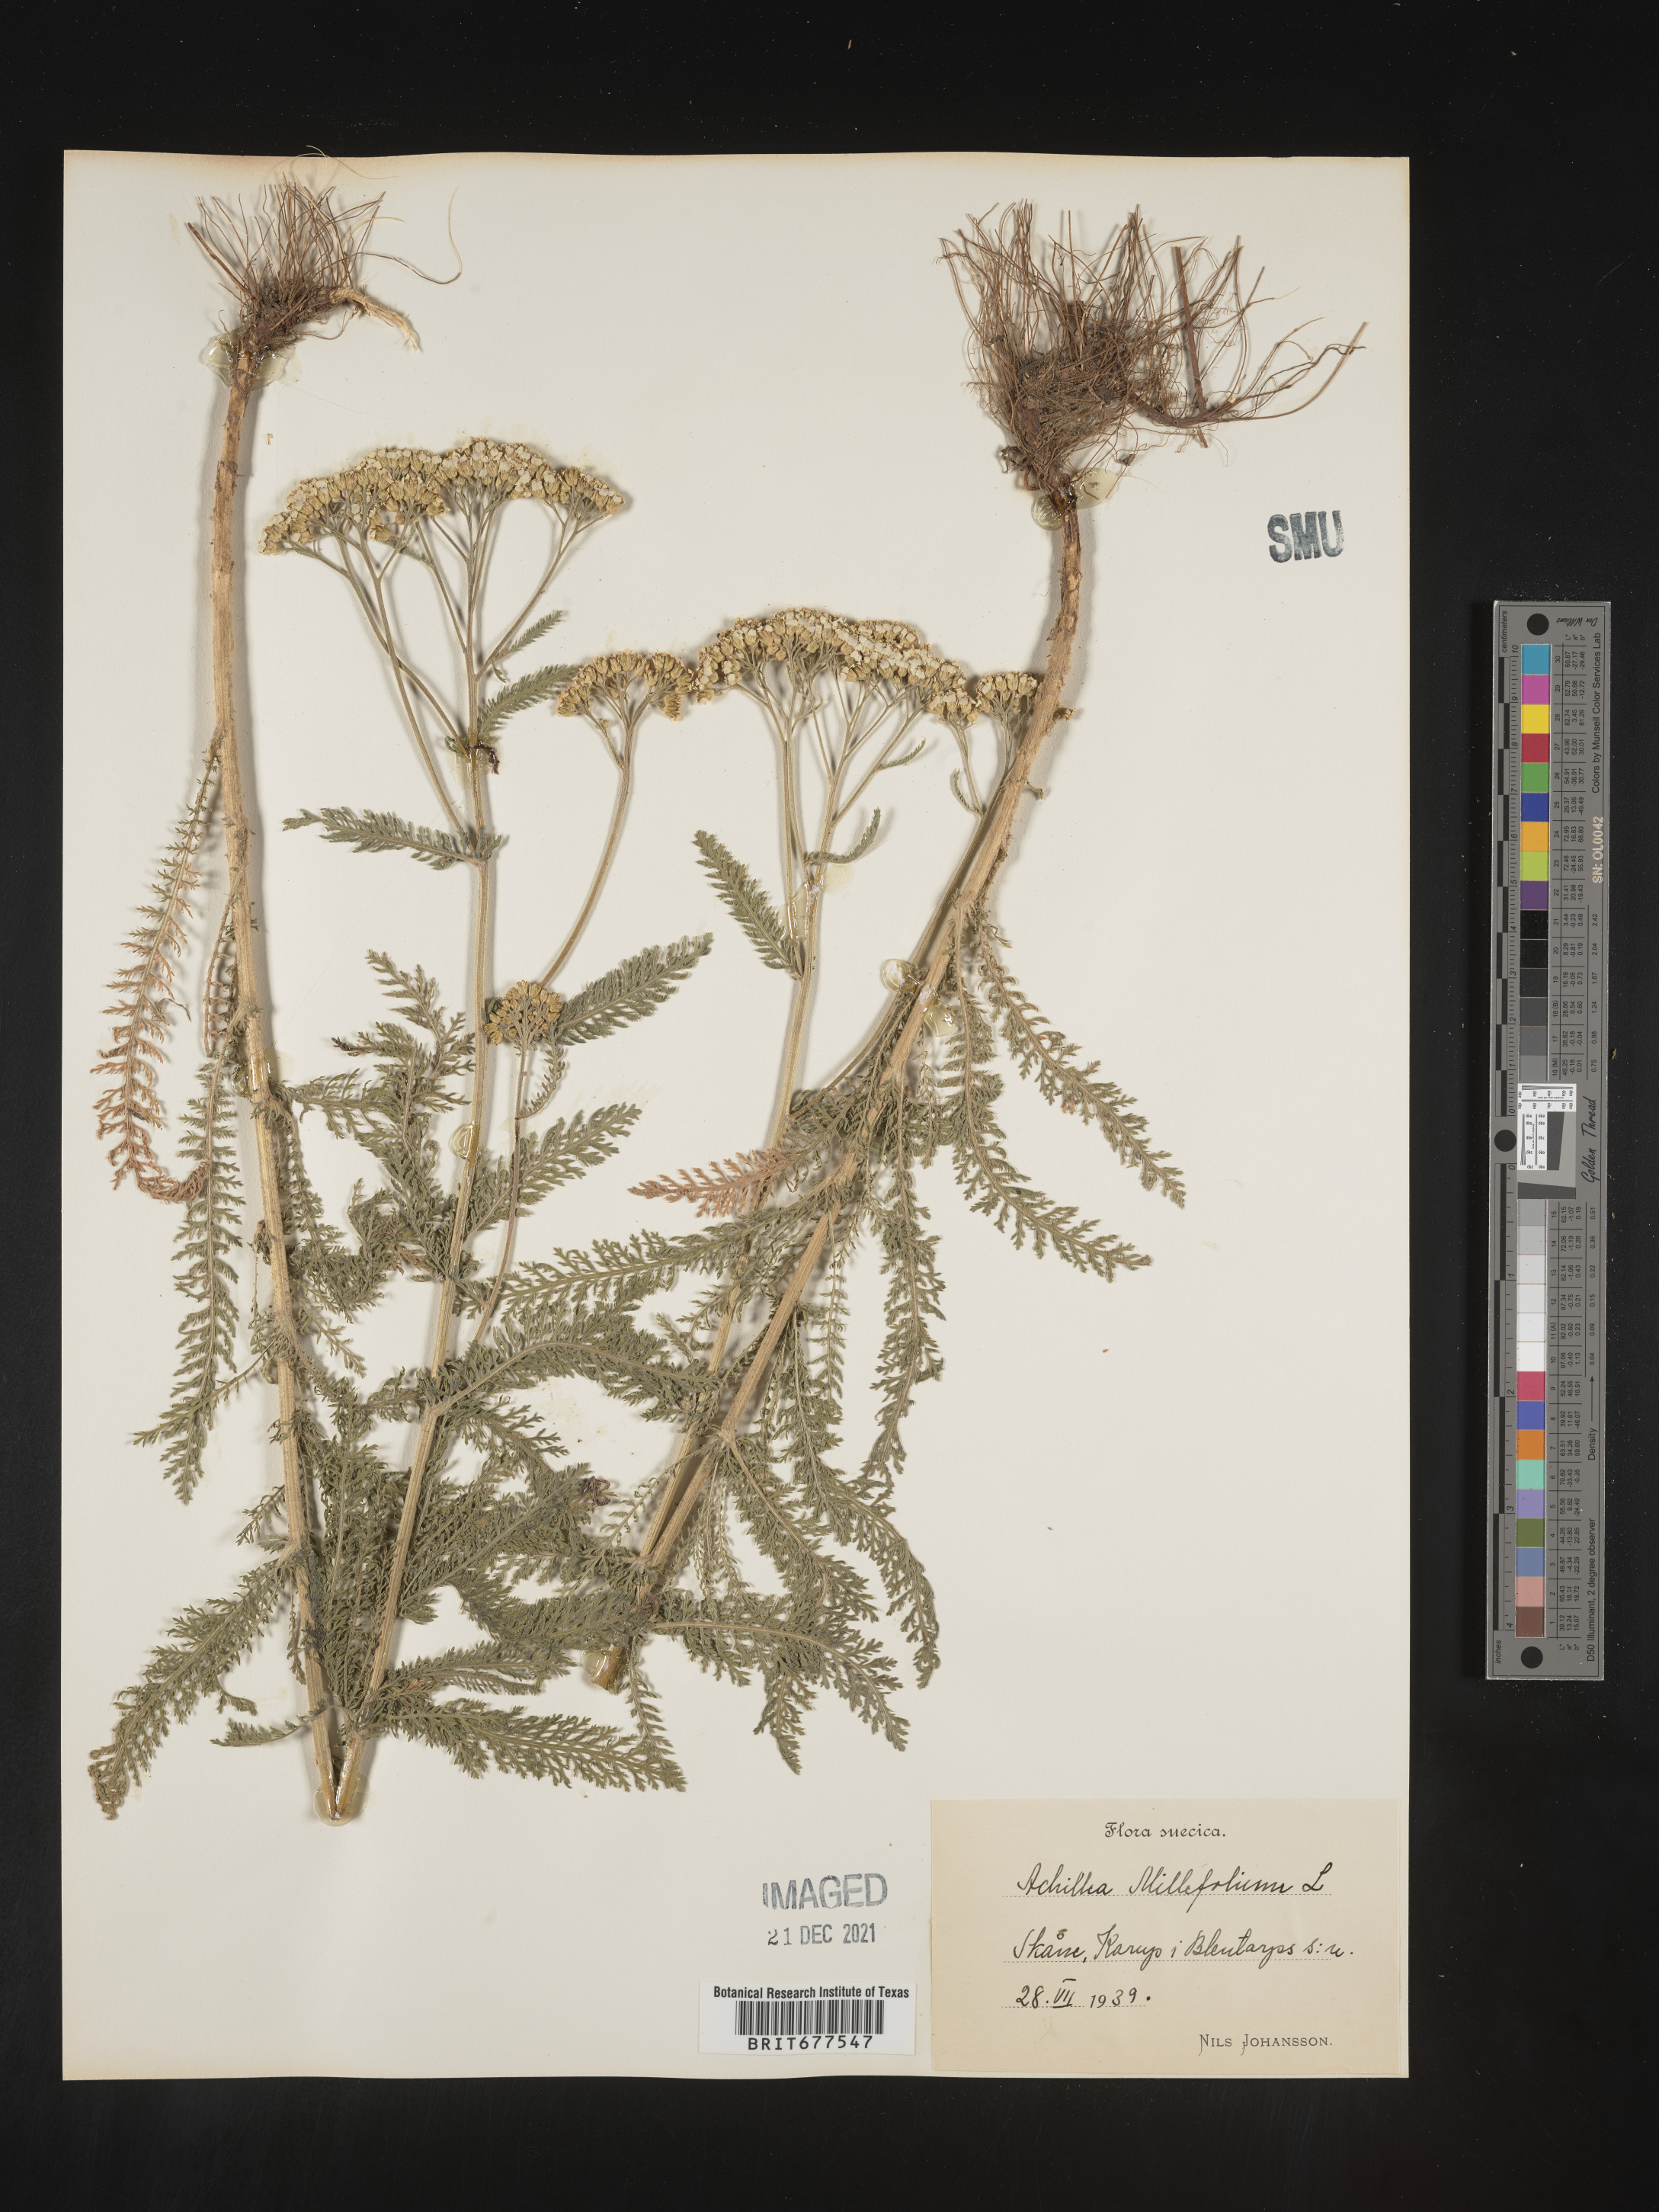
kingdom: Plantae
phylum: Tracheophyta
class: Magnoliopsida
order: Asterales
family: Asteraceae
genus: Achillea
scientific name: Achillea millefolium
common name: Yarrow
